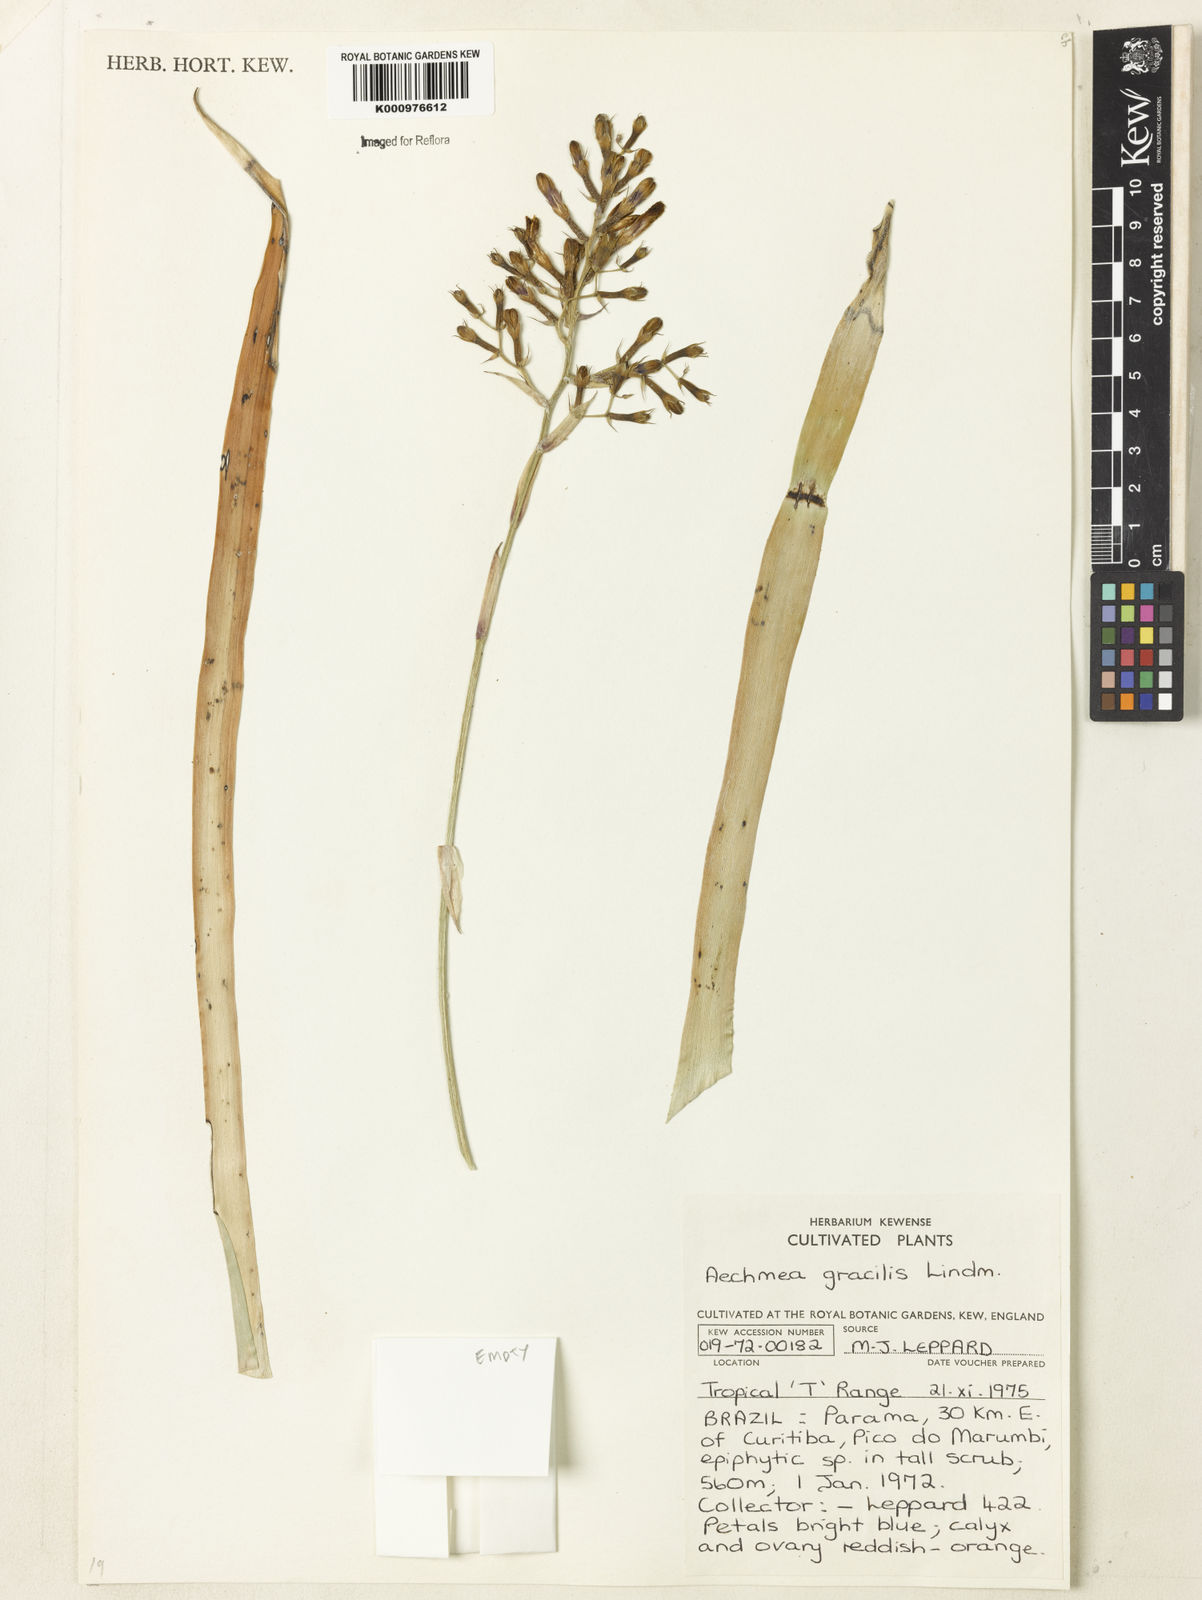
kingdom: Plantae
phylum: Tracheophyta
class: Liliopsida
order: Poales
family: Bromeliaceae
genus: Aechmea
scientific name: Aechmea gracilis
